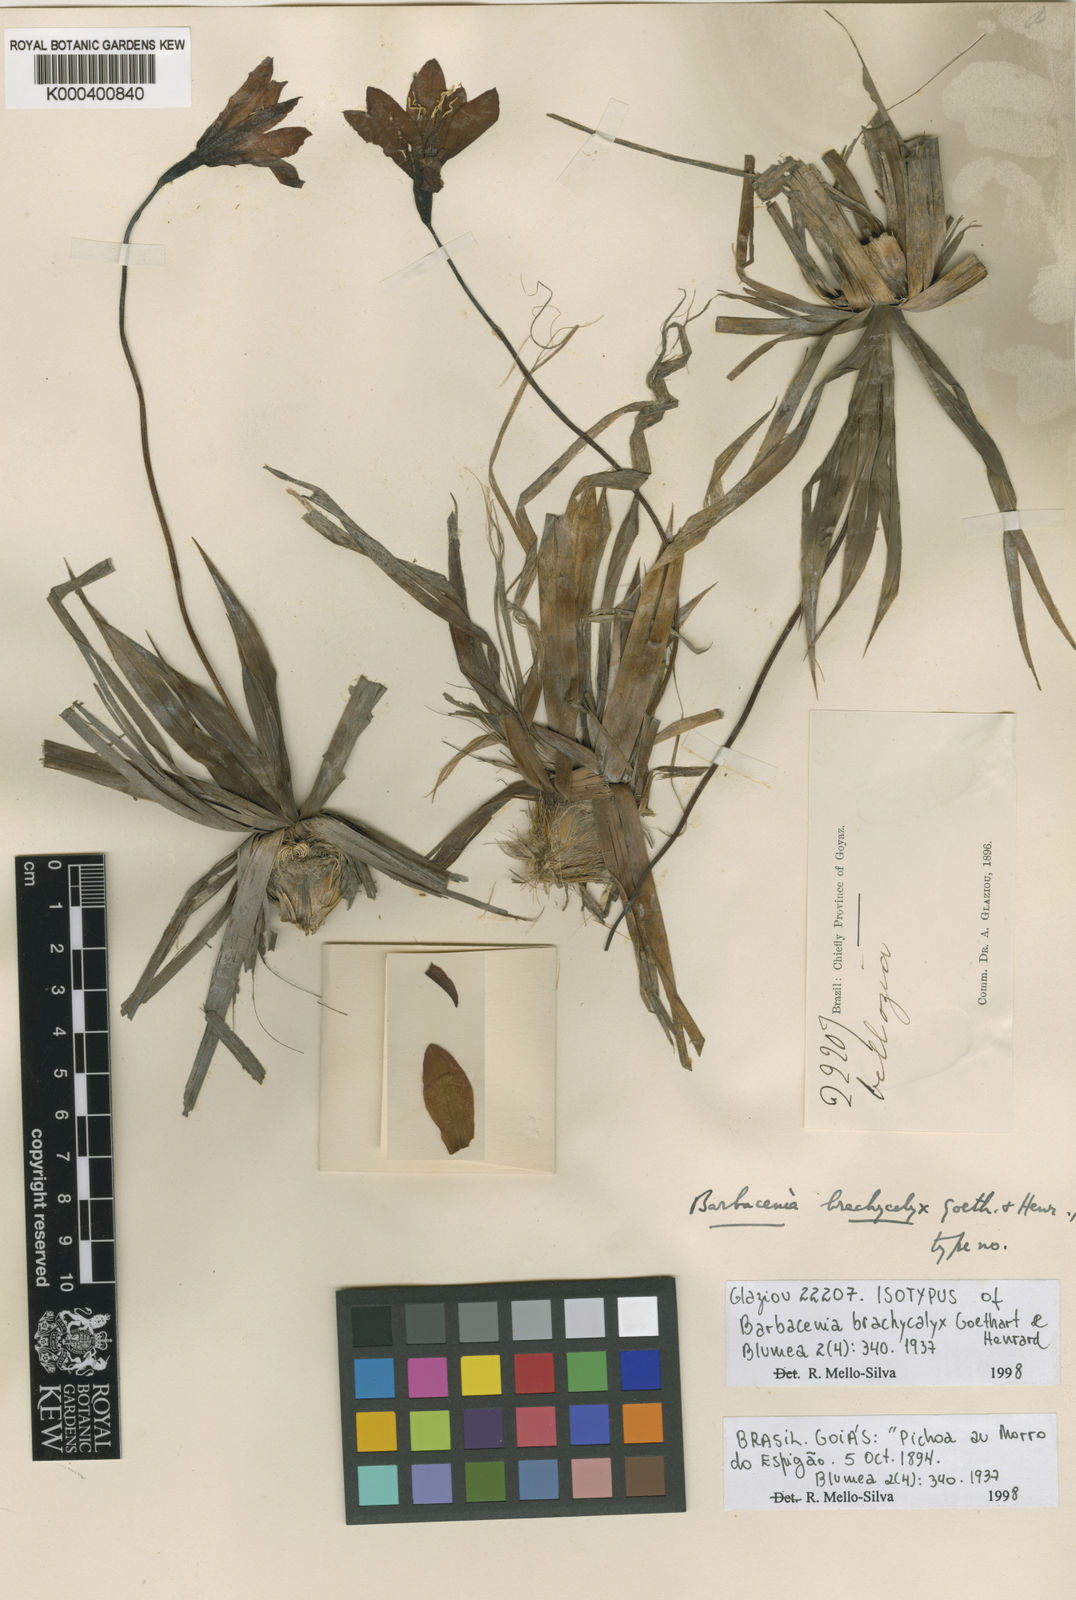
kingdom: Plantae
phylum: Tracheophyta
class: Liliopsida
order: Pandanales
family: Velloziaceae
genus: Barbacenia
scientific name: Barbacenia brachycalyx
